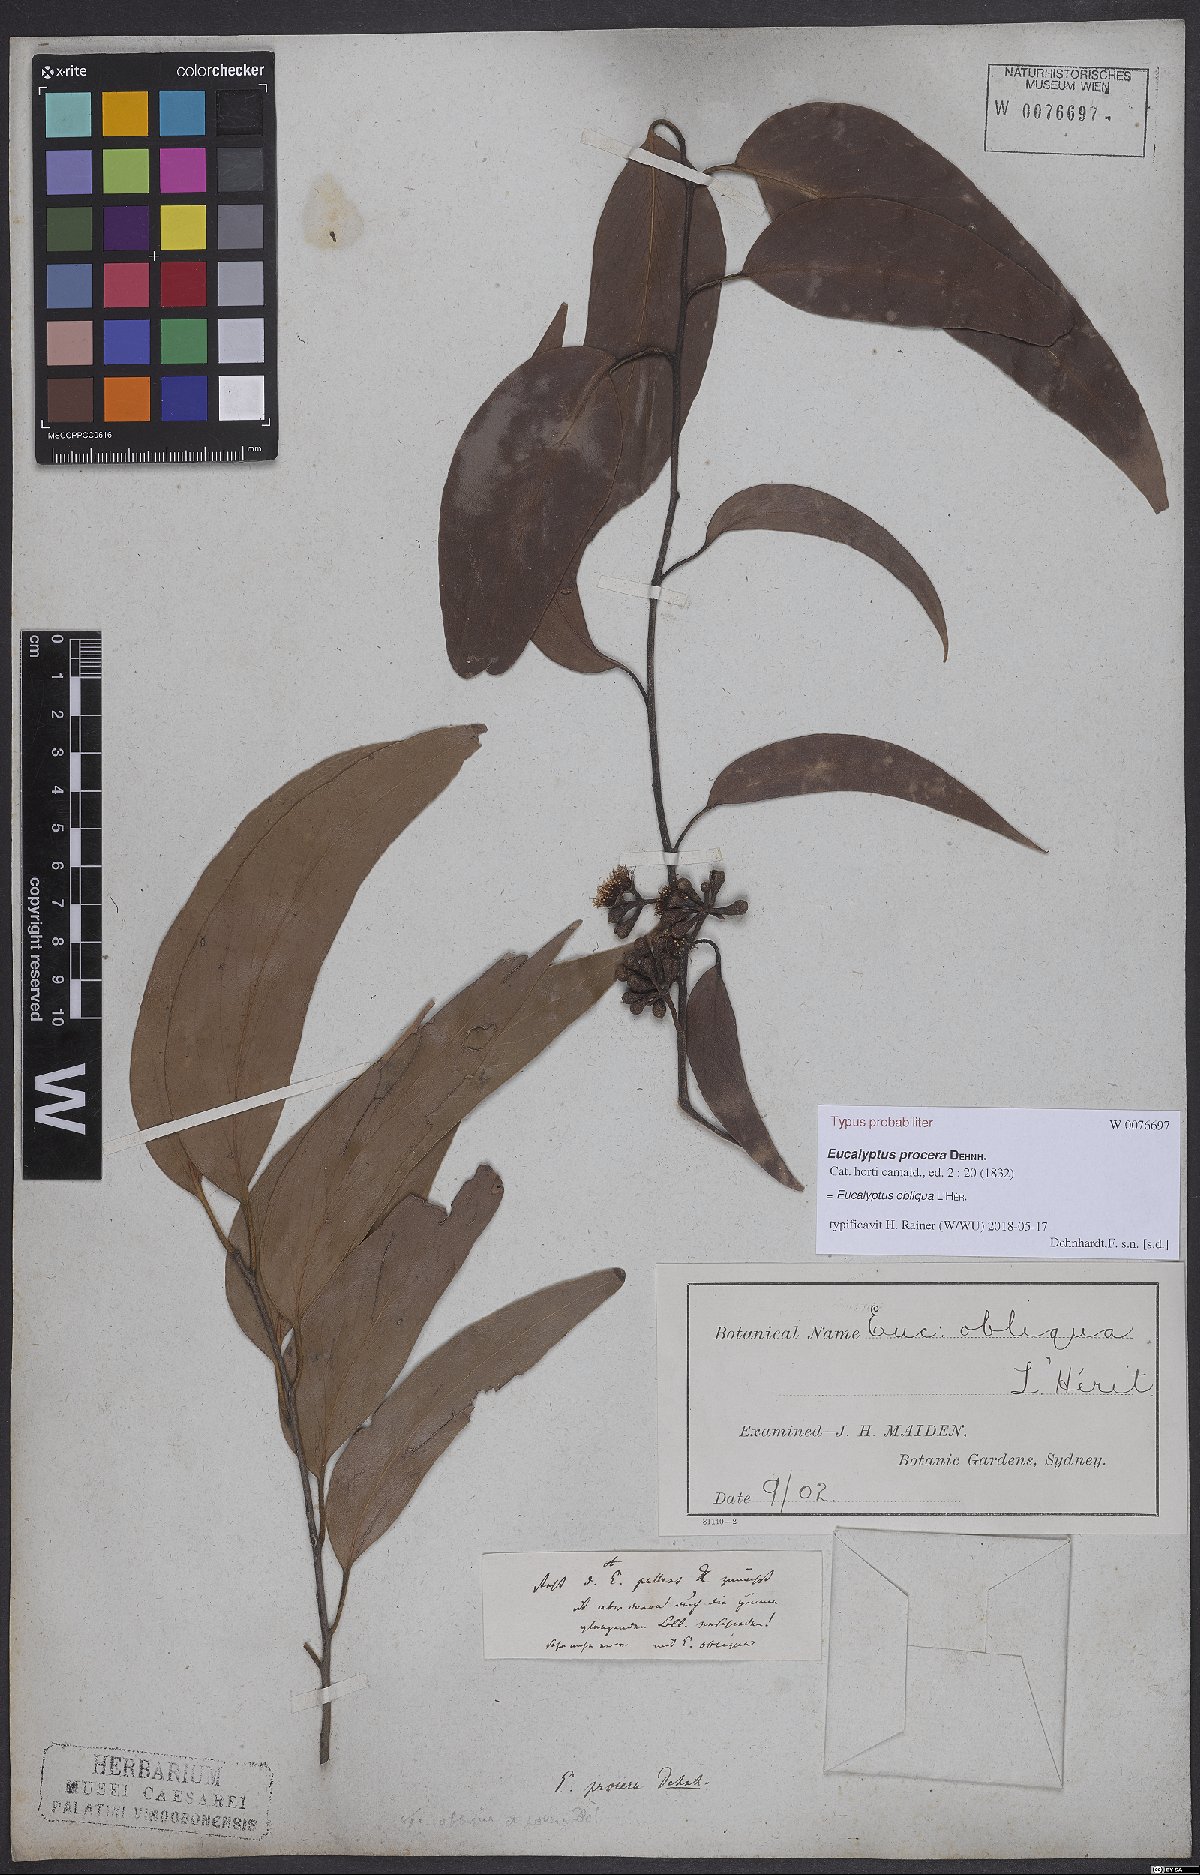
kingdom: Plantae
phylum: Tracheophyta
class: Magnoliopsida
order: Myrtales
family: Myrtaceae
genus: Eucalyptus
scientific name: Eucalyptus obliqua
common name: Messmate stringybark
